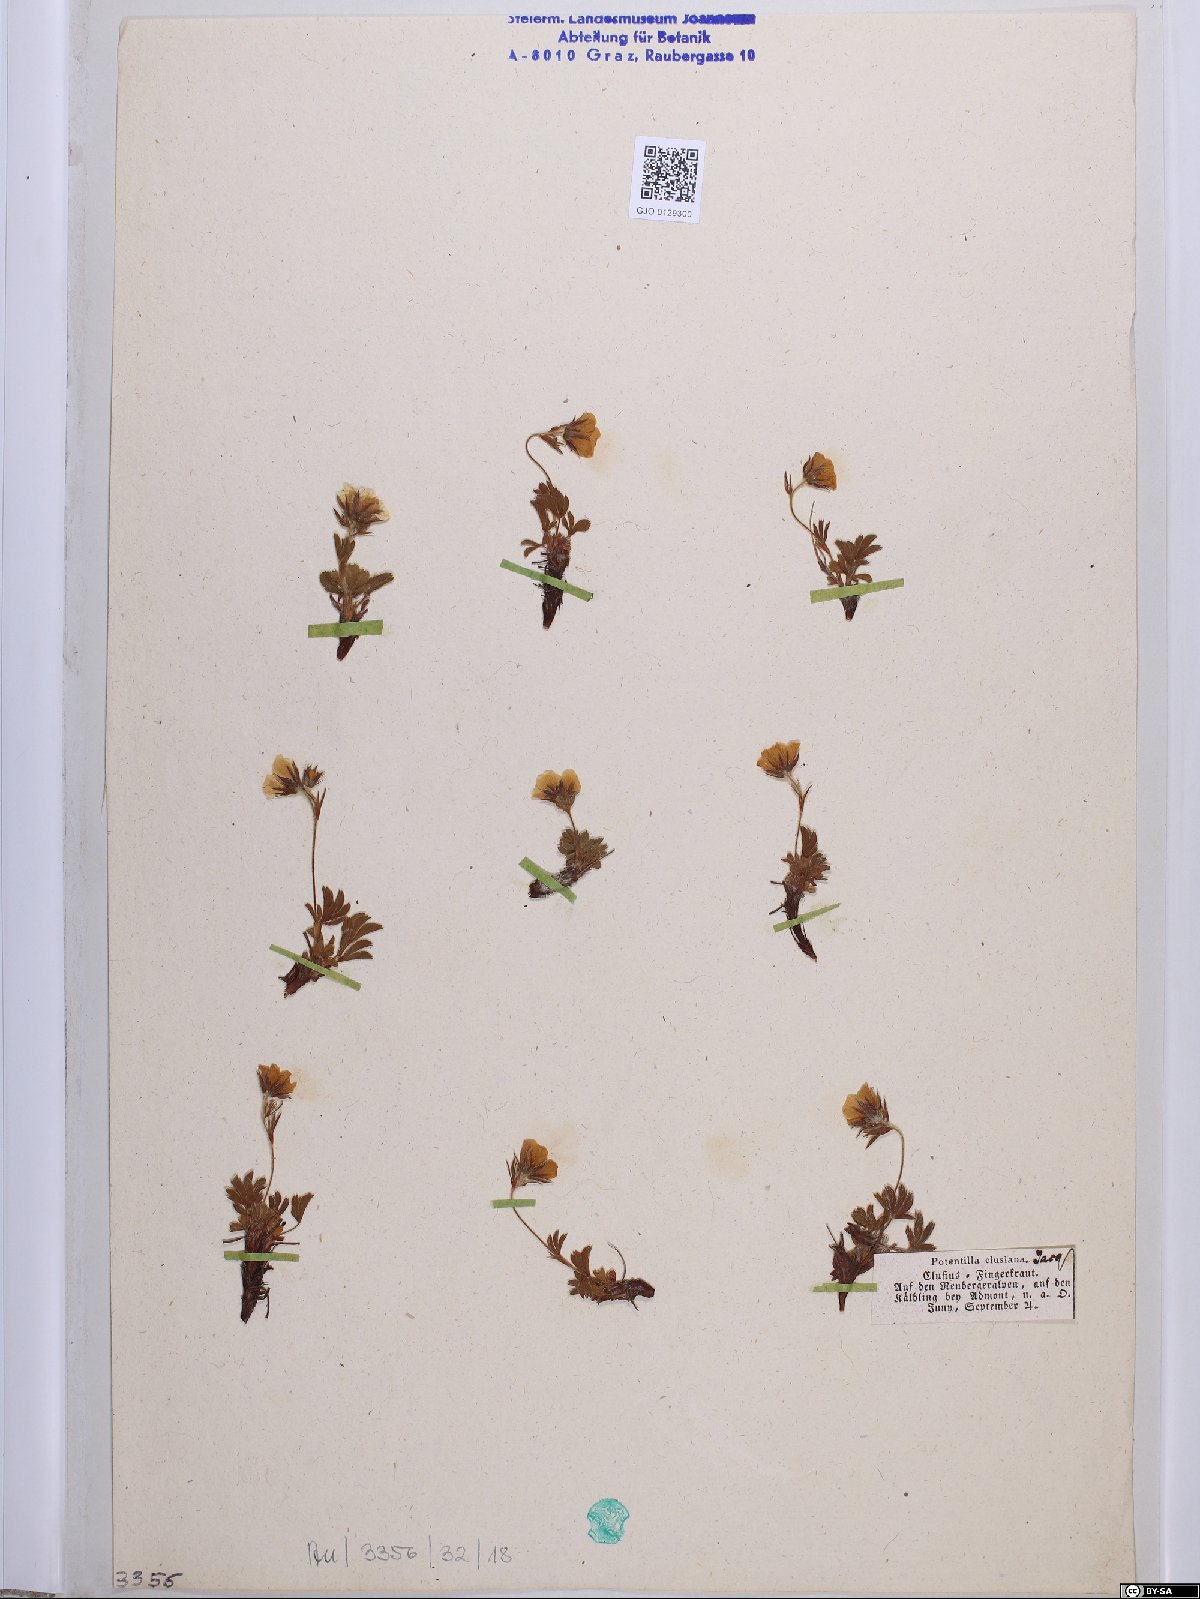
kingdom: Plantae
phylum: Tracheophyta
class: Magnoliopsida
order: Rosales
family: Rosaceae
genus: Potentilla
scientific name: Potentilla clusiana
